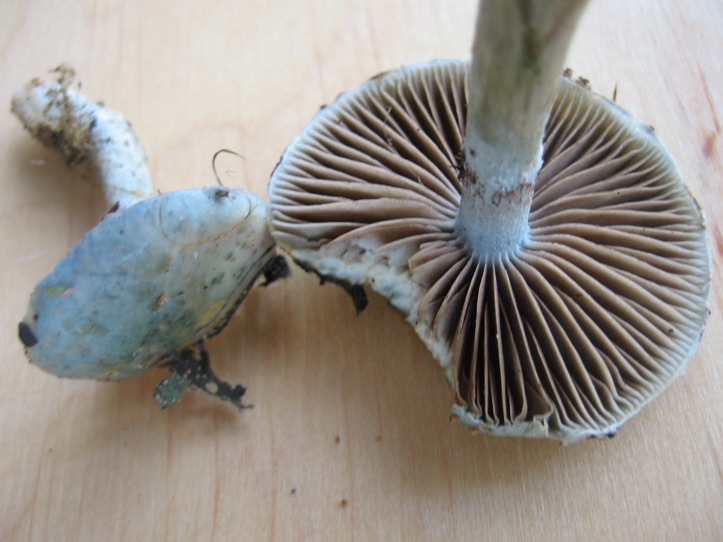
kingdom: Fungi
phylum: Basidiomycota
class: Agaricomycetes
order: Agaricales
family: Strophariaceae
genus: Stropharia
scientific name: Stropharia cyanea
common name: blågrøn bredblad
